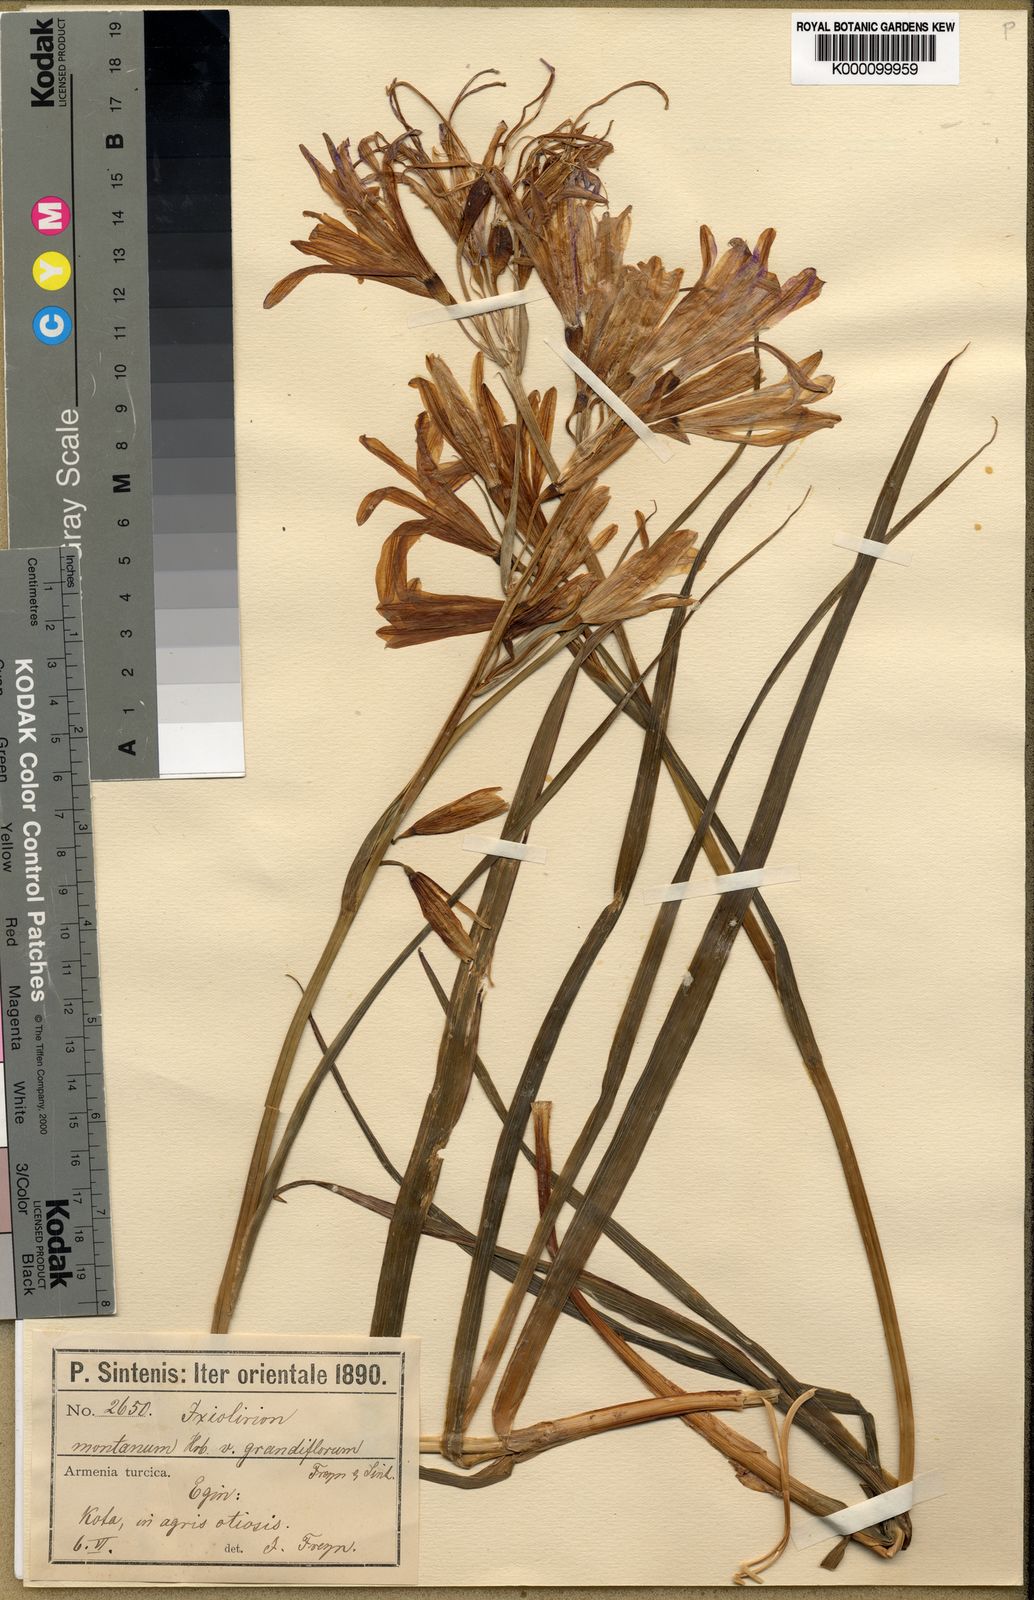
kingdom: Plantae
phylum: Tracheophyta
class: Liliopsida
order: Asparagales
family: Ixioliriaceae
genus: Ixiolirion
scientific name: Ixiolirion tataricum
